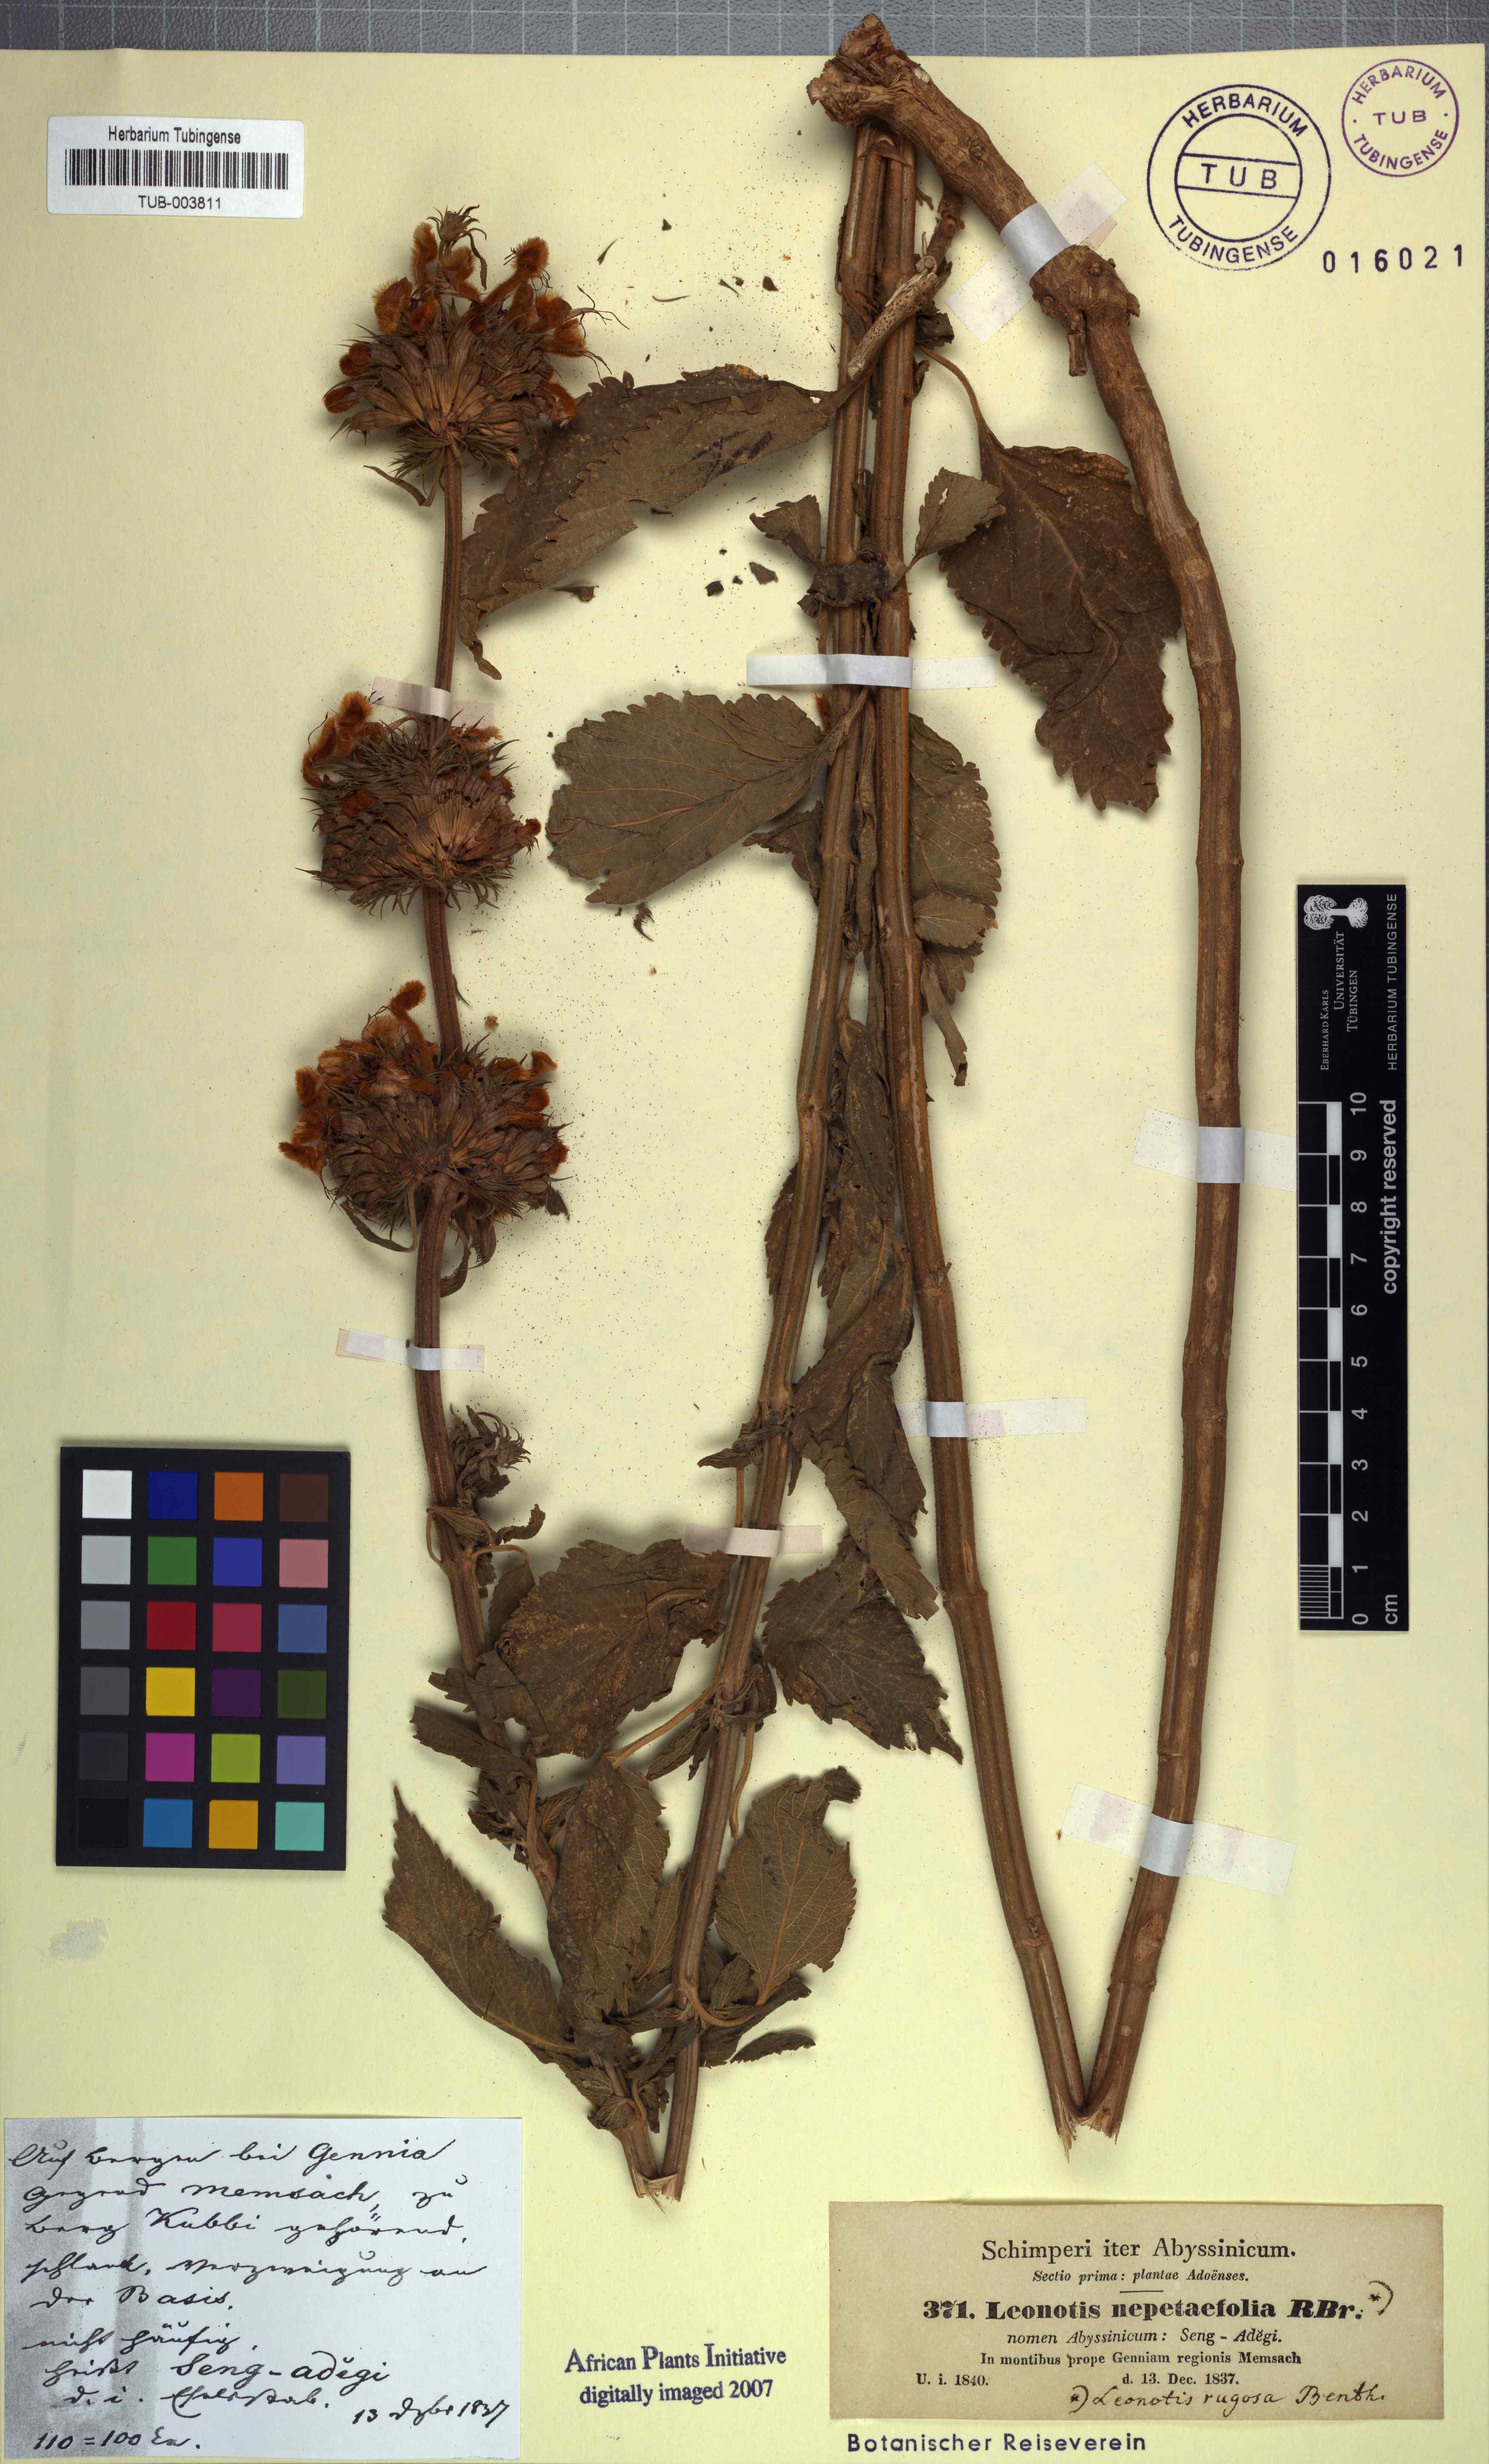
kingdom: Plantae
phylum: Tracheophyta
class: Magnoliopsida
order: Lamiales
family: Lamiaceae
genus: Leonotis
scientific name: Leonotis nepetifolia
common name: Christmas candlestick
